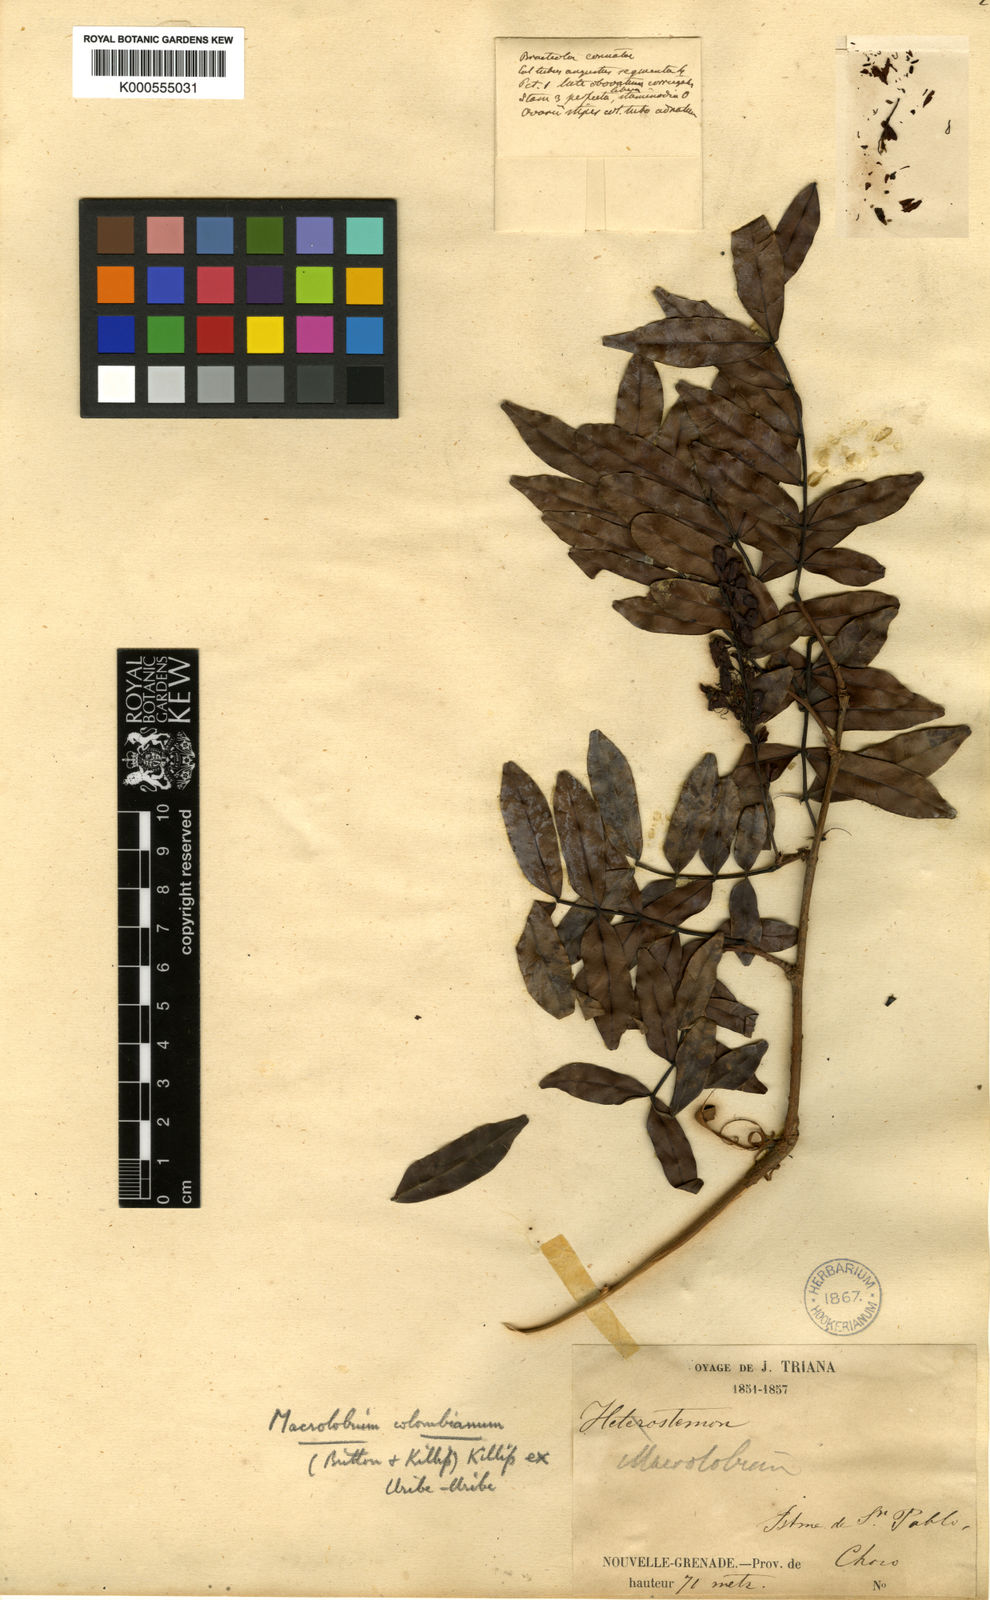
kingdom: Plantae
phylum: Tracheophyta
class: Magnoliopsida
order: Fabales
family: Fabaceae
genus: Macrolobium
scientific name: Macrolobium colombianum
